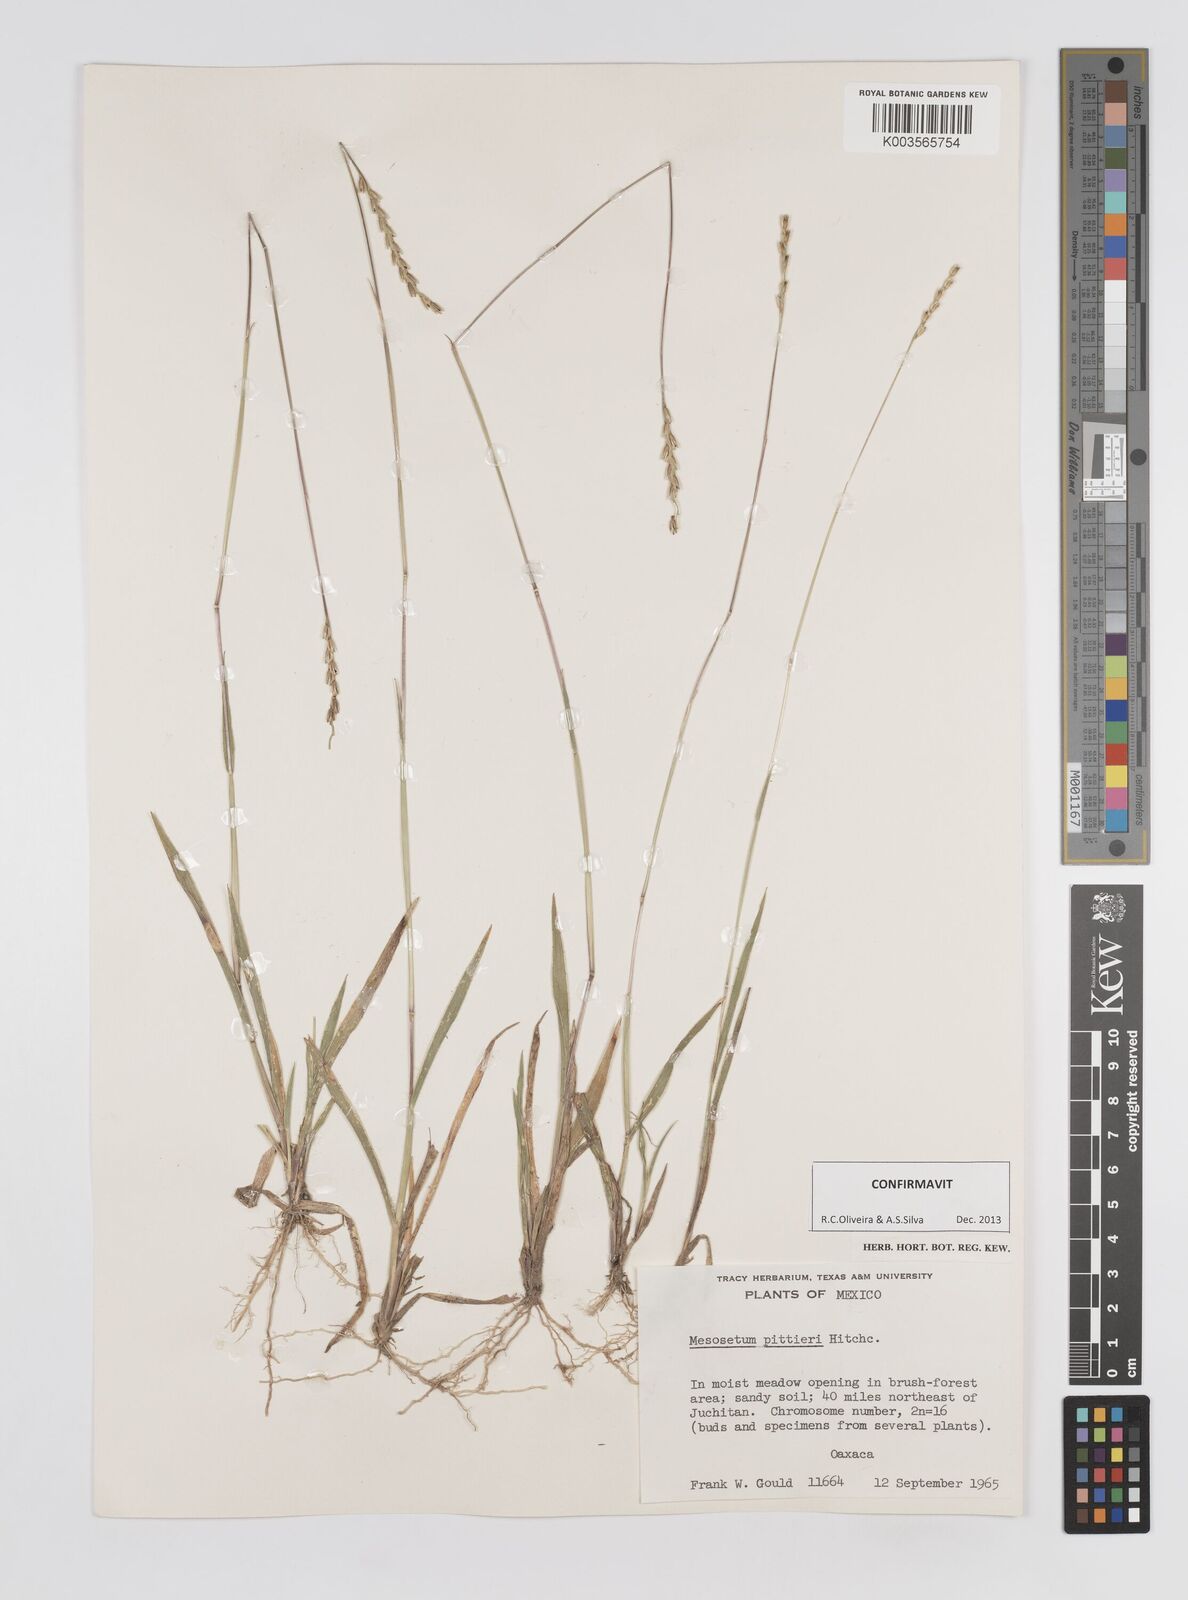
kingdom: Plantae
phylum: Tracheophyta
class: Liliopsida
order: Poales
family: Poaceae
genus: Mesosetum
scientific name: Mesosetum pittieri
